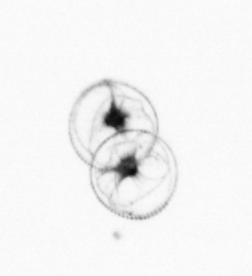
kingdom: Chromista
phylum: Myzozoa
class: Dinophyceae
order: Noctilucales
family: Noctilucaceae
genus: Noctiluca
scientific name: Noctiluca scintillans
